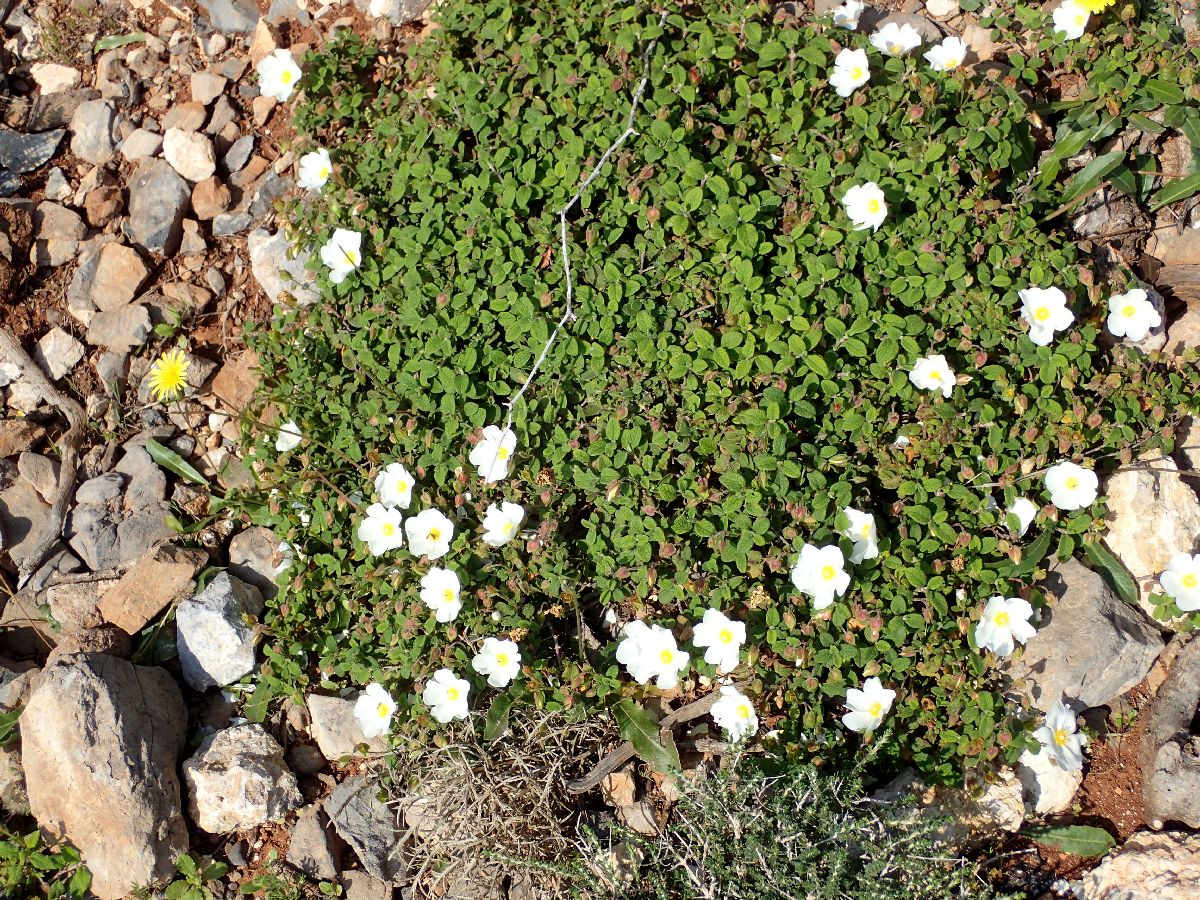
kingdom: Plantae
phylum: Tracheophyta
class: Magnoliopsida
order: Malvales
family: Cistaceae
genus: Cistus
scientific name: Cistus salviifolius
